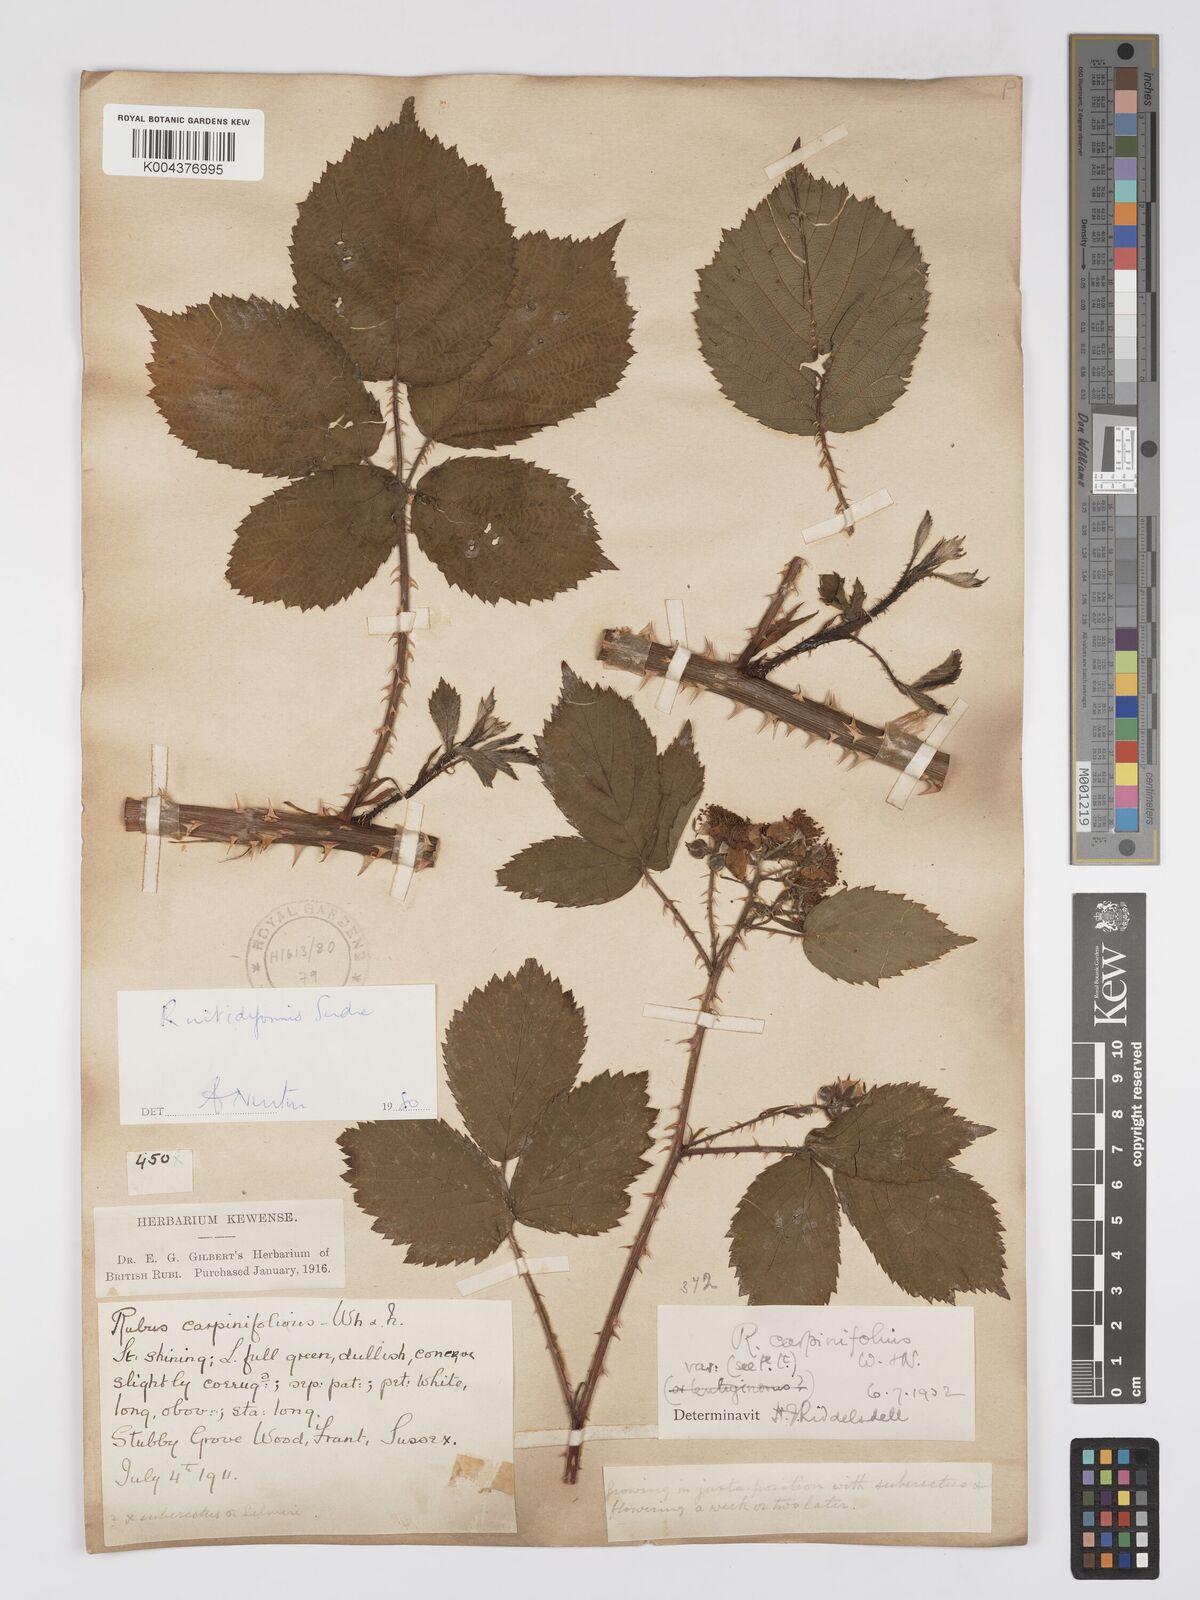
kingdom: Plantae
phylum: Tracheophyta
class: Magnoliopsida
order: Rosales
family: Rosaceae
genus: Rubus
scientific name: Rubus nitidiformis
